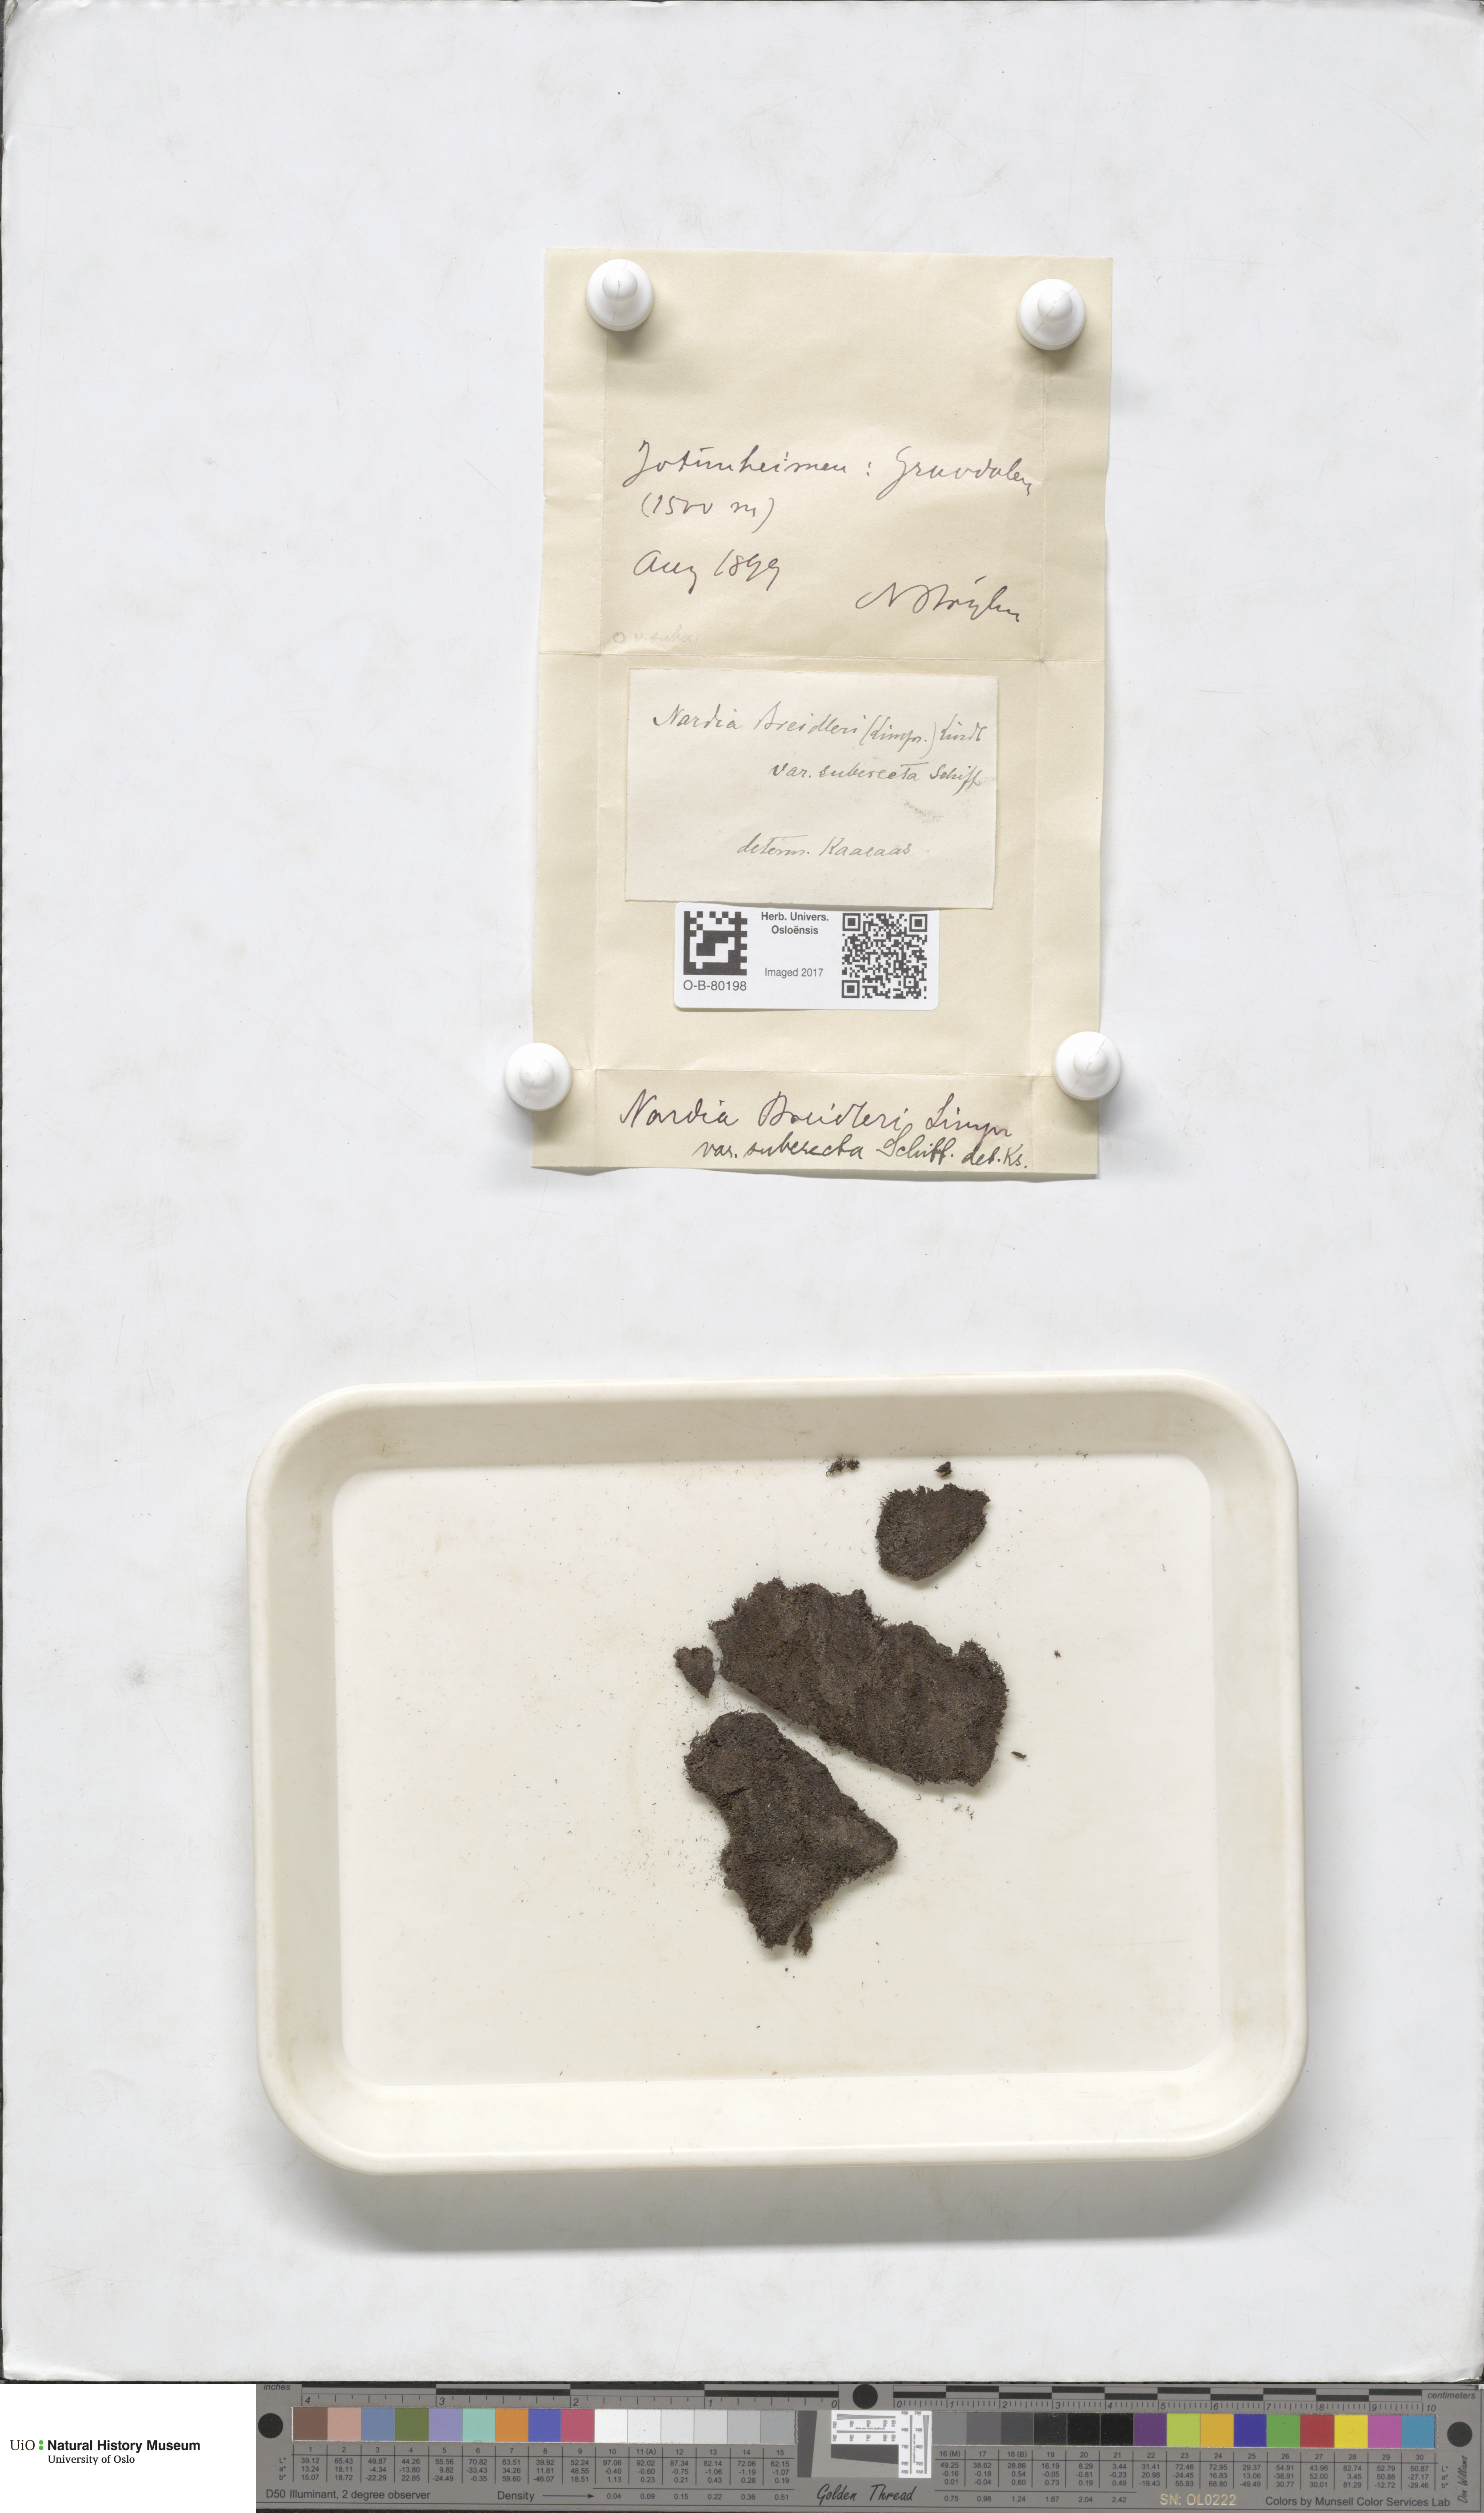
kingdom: Plantae
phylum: Marchantiophyta
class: Jungermanniopsida
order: Jungermanniales
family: Gymnomitriaceae
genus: Nardia
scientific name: Nardia breidleri
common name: Book flapwort
